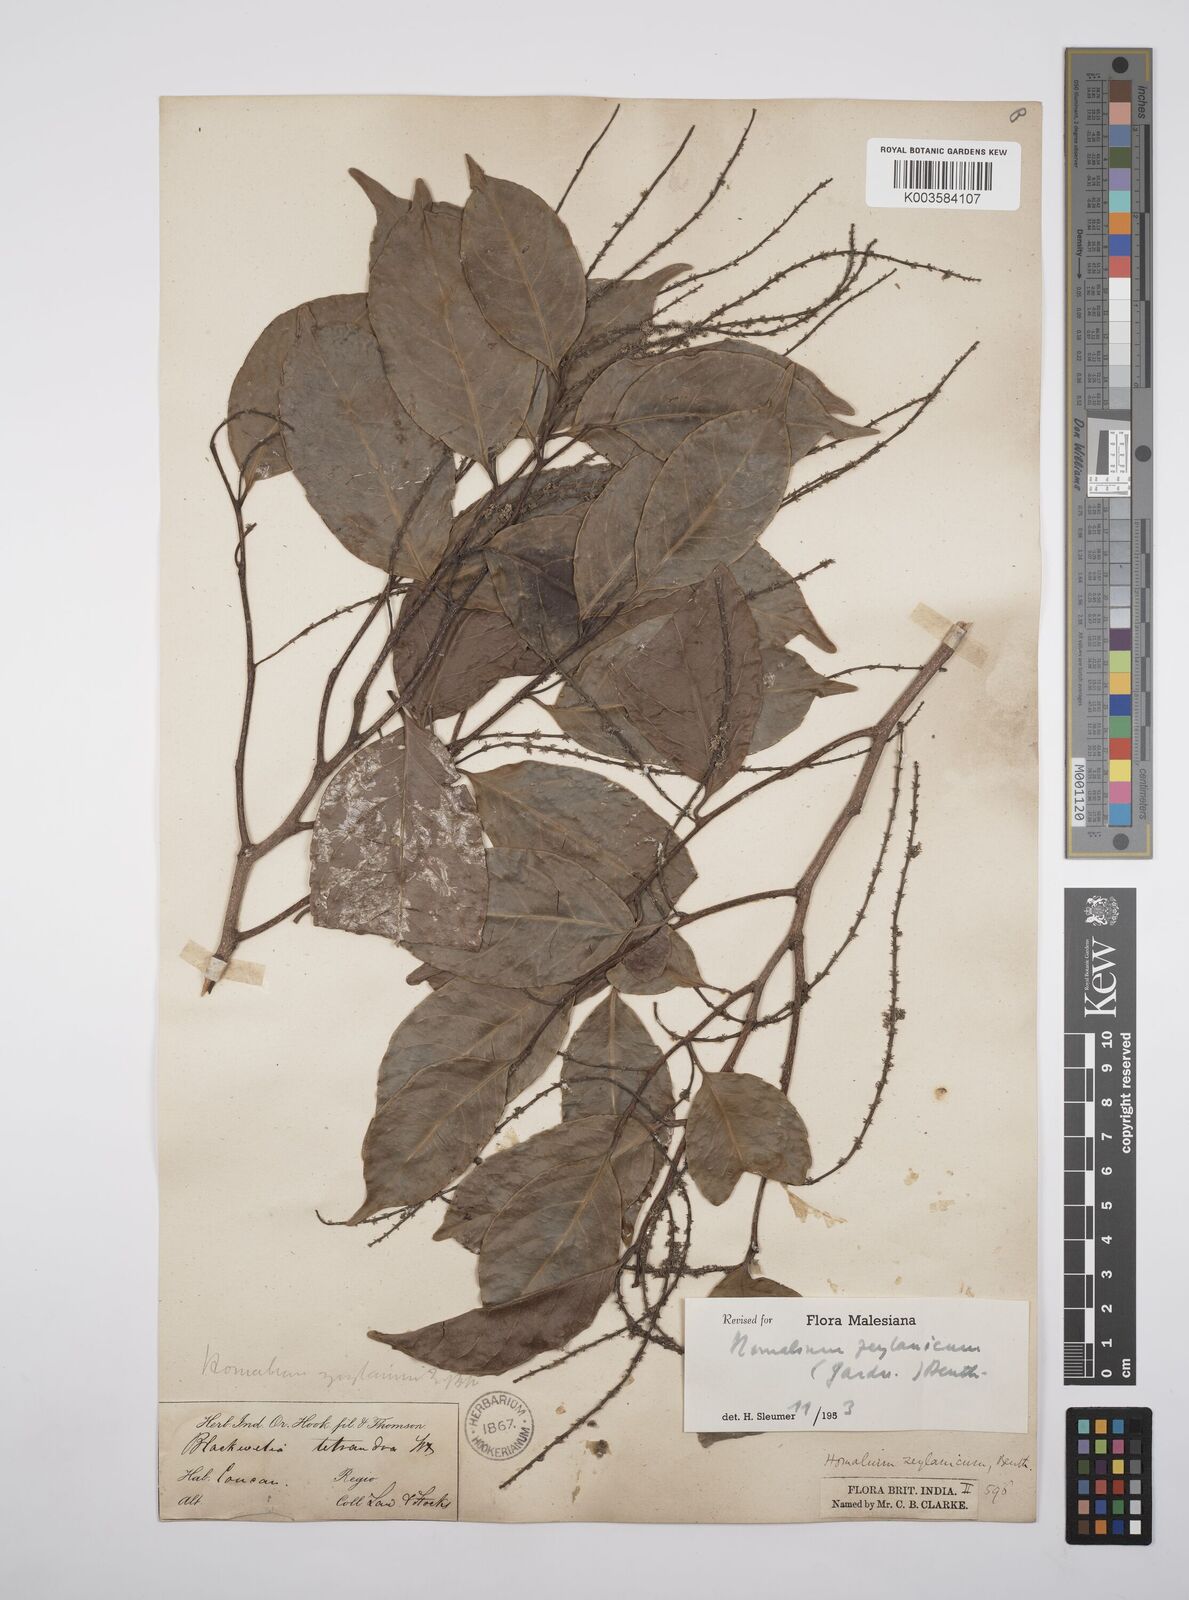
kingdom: Plantae
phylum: Tracheophyta
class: Magnoliopsida
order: Malpighiales
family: Salicaceae
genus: Homalium
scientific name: Homalium ceylanicum
